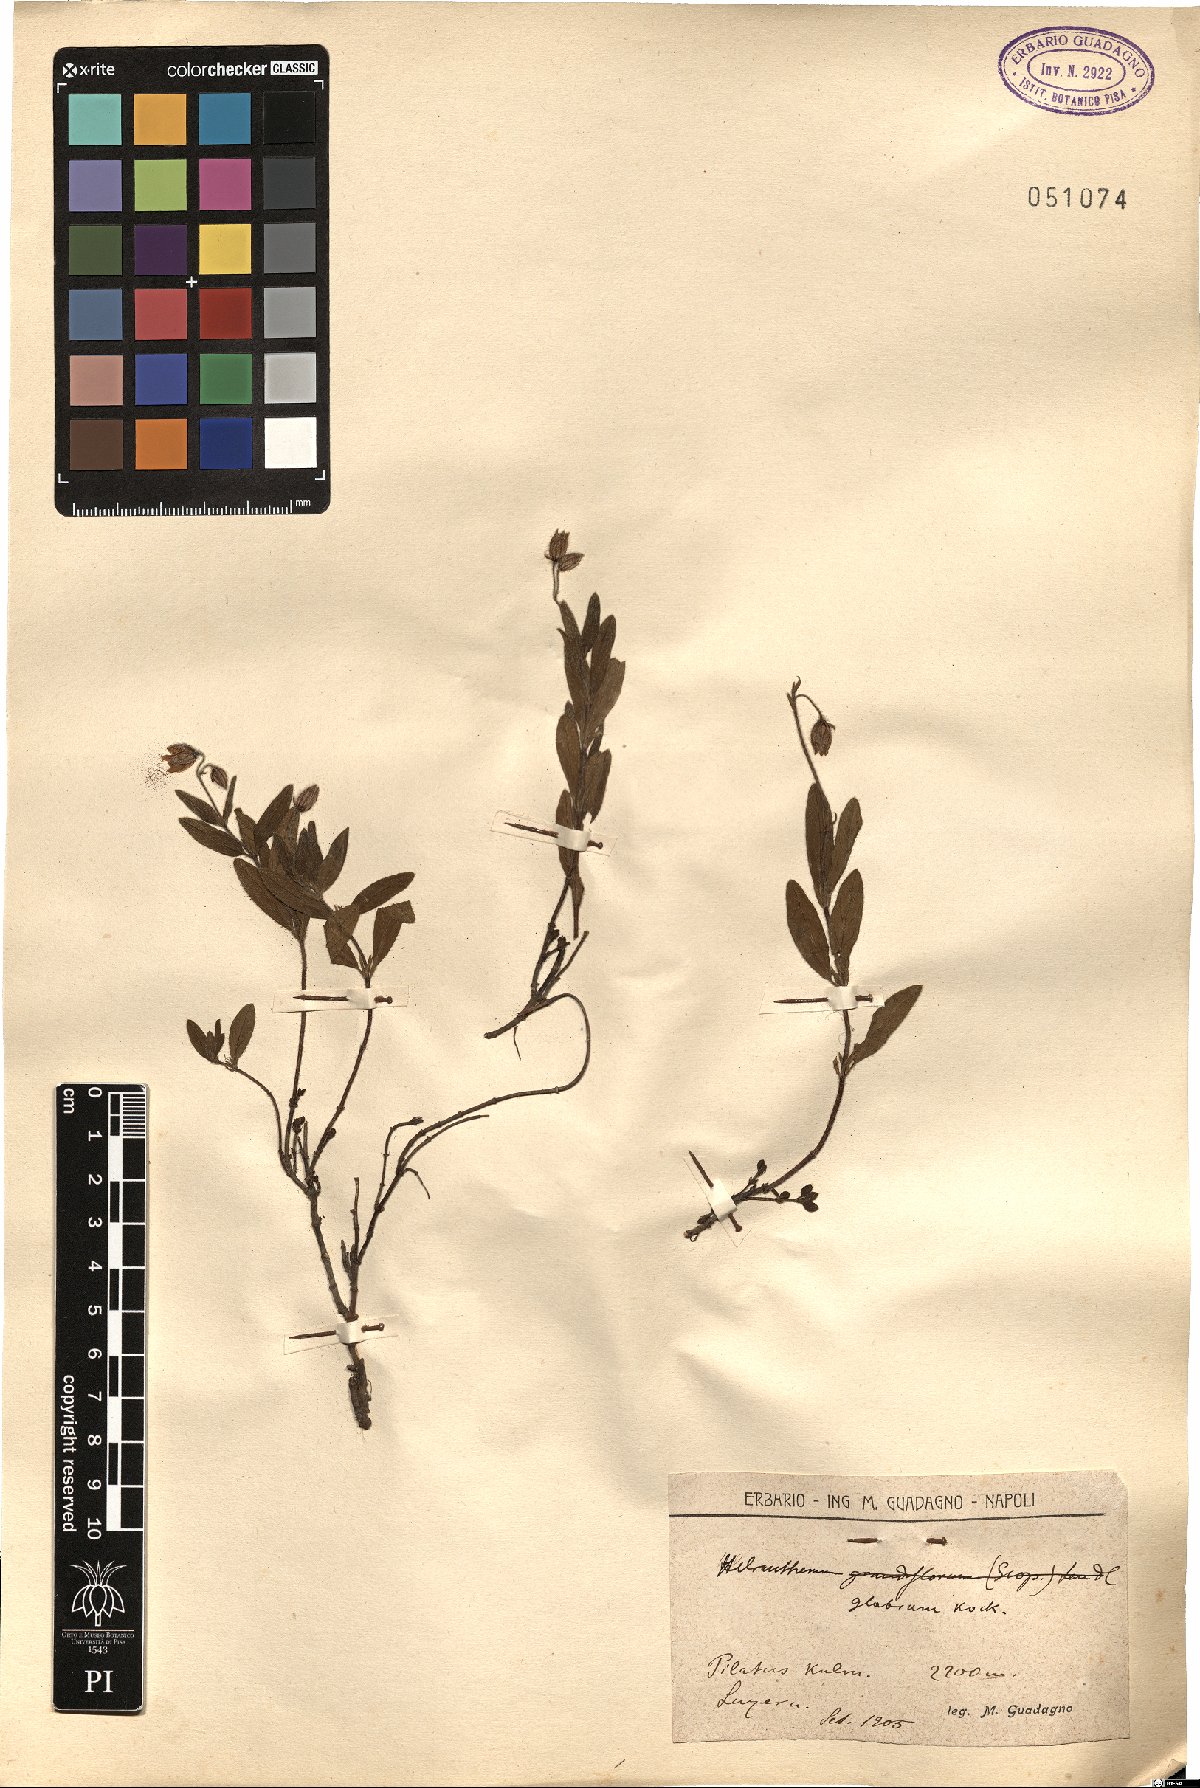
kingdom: Plantae
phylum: Tracheophyta
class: Magnoliopsida
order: Malvales
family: Cistaceae
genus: Helianthemum
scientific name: Helianthemum nummularium
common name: Common rock-rose
